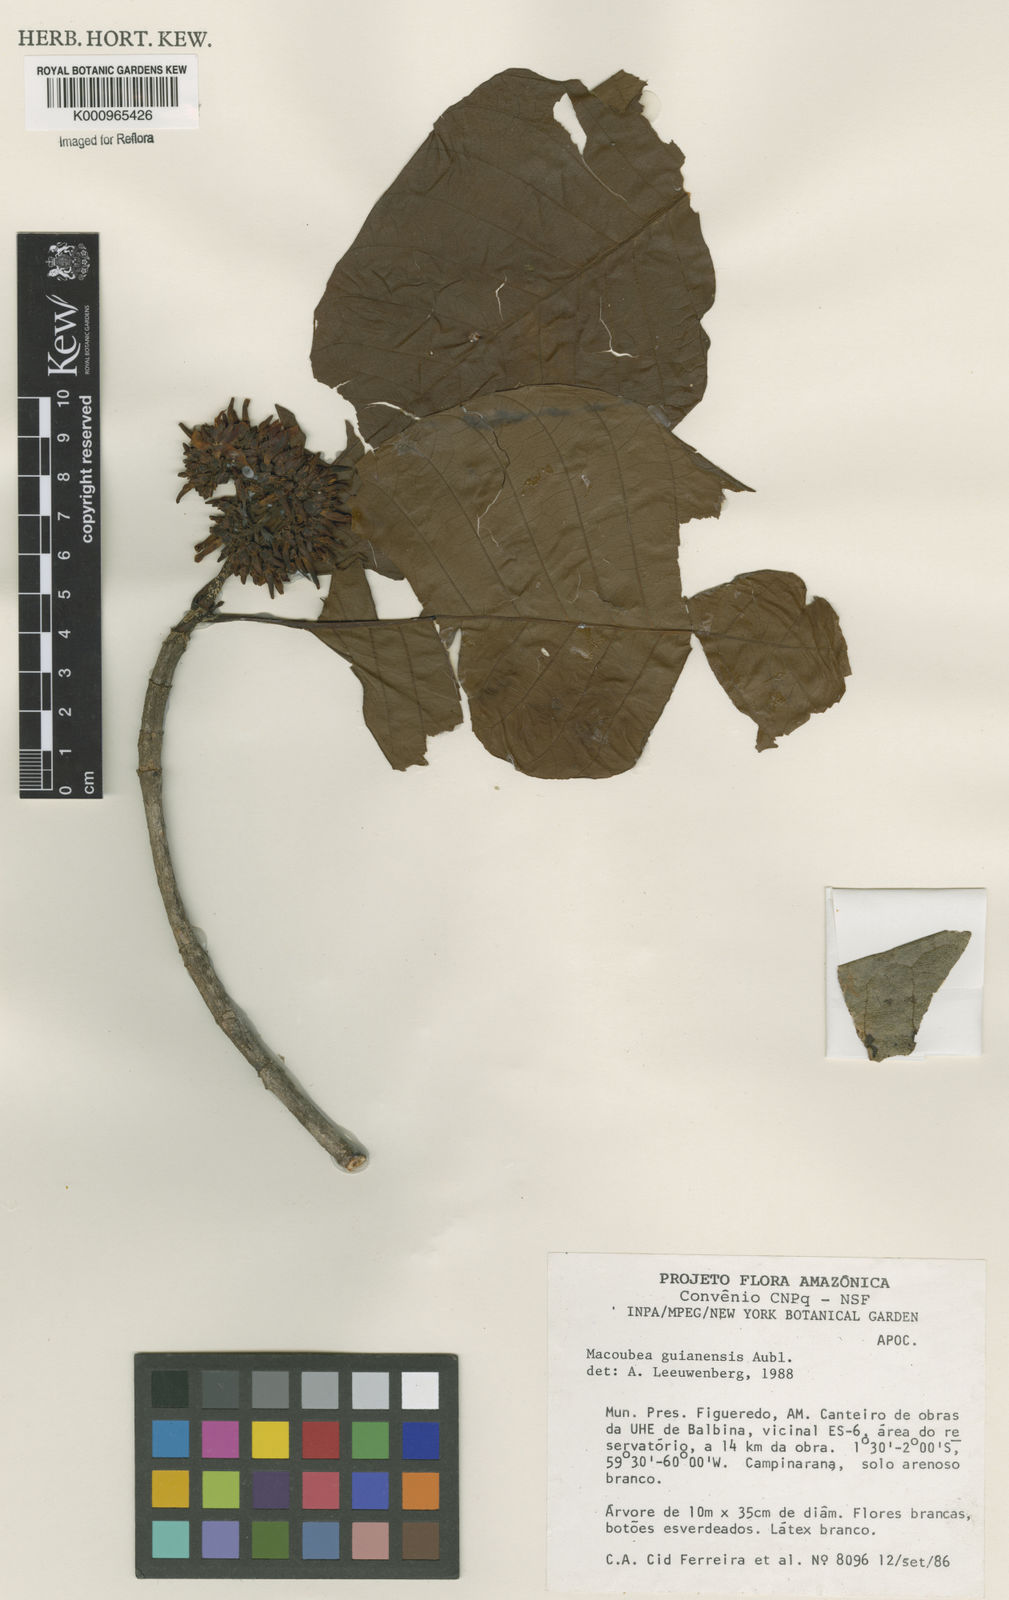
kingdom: Plantae
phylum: Tracheophyta
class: Magnoliopsida
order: Gentianales
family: Apocynaceae
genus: Macoubea
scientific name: Macoubea guianensis
